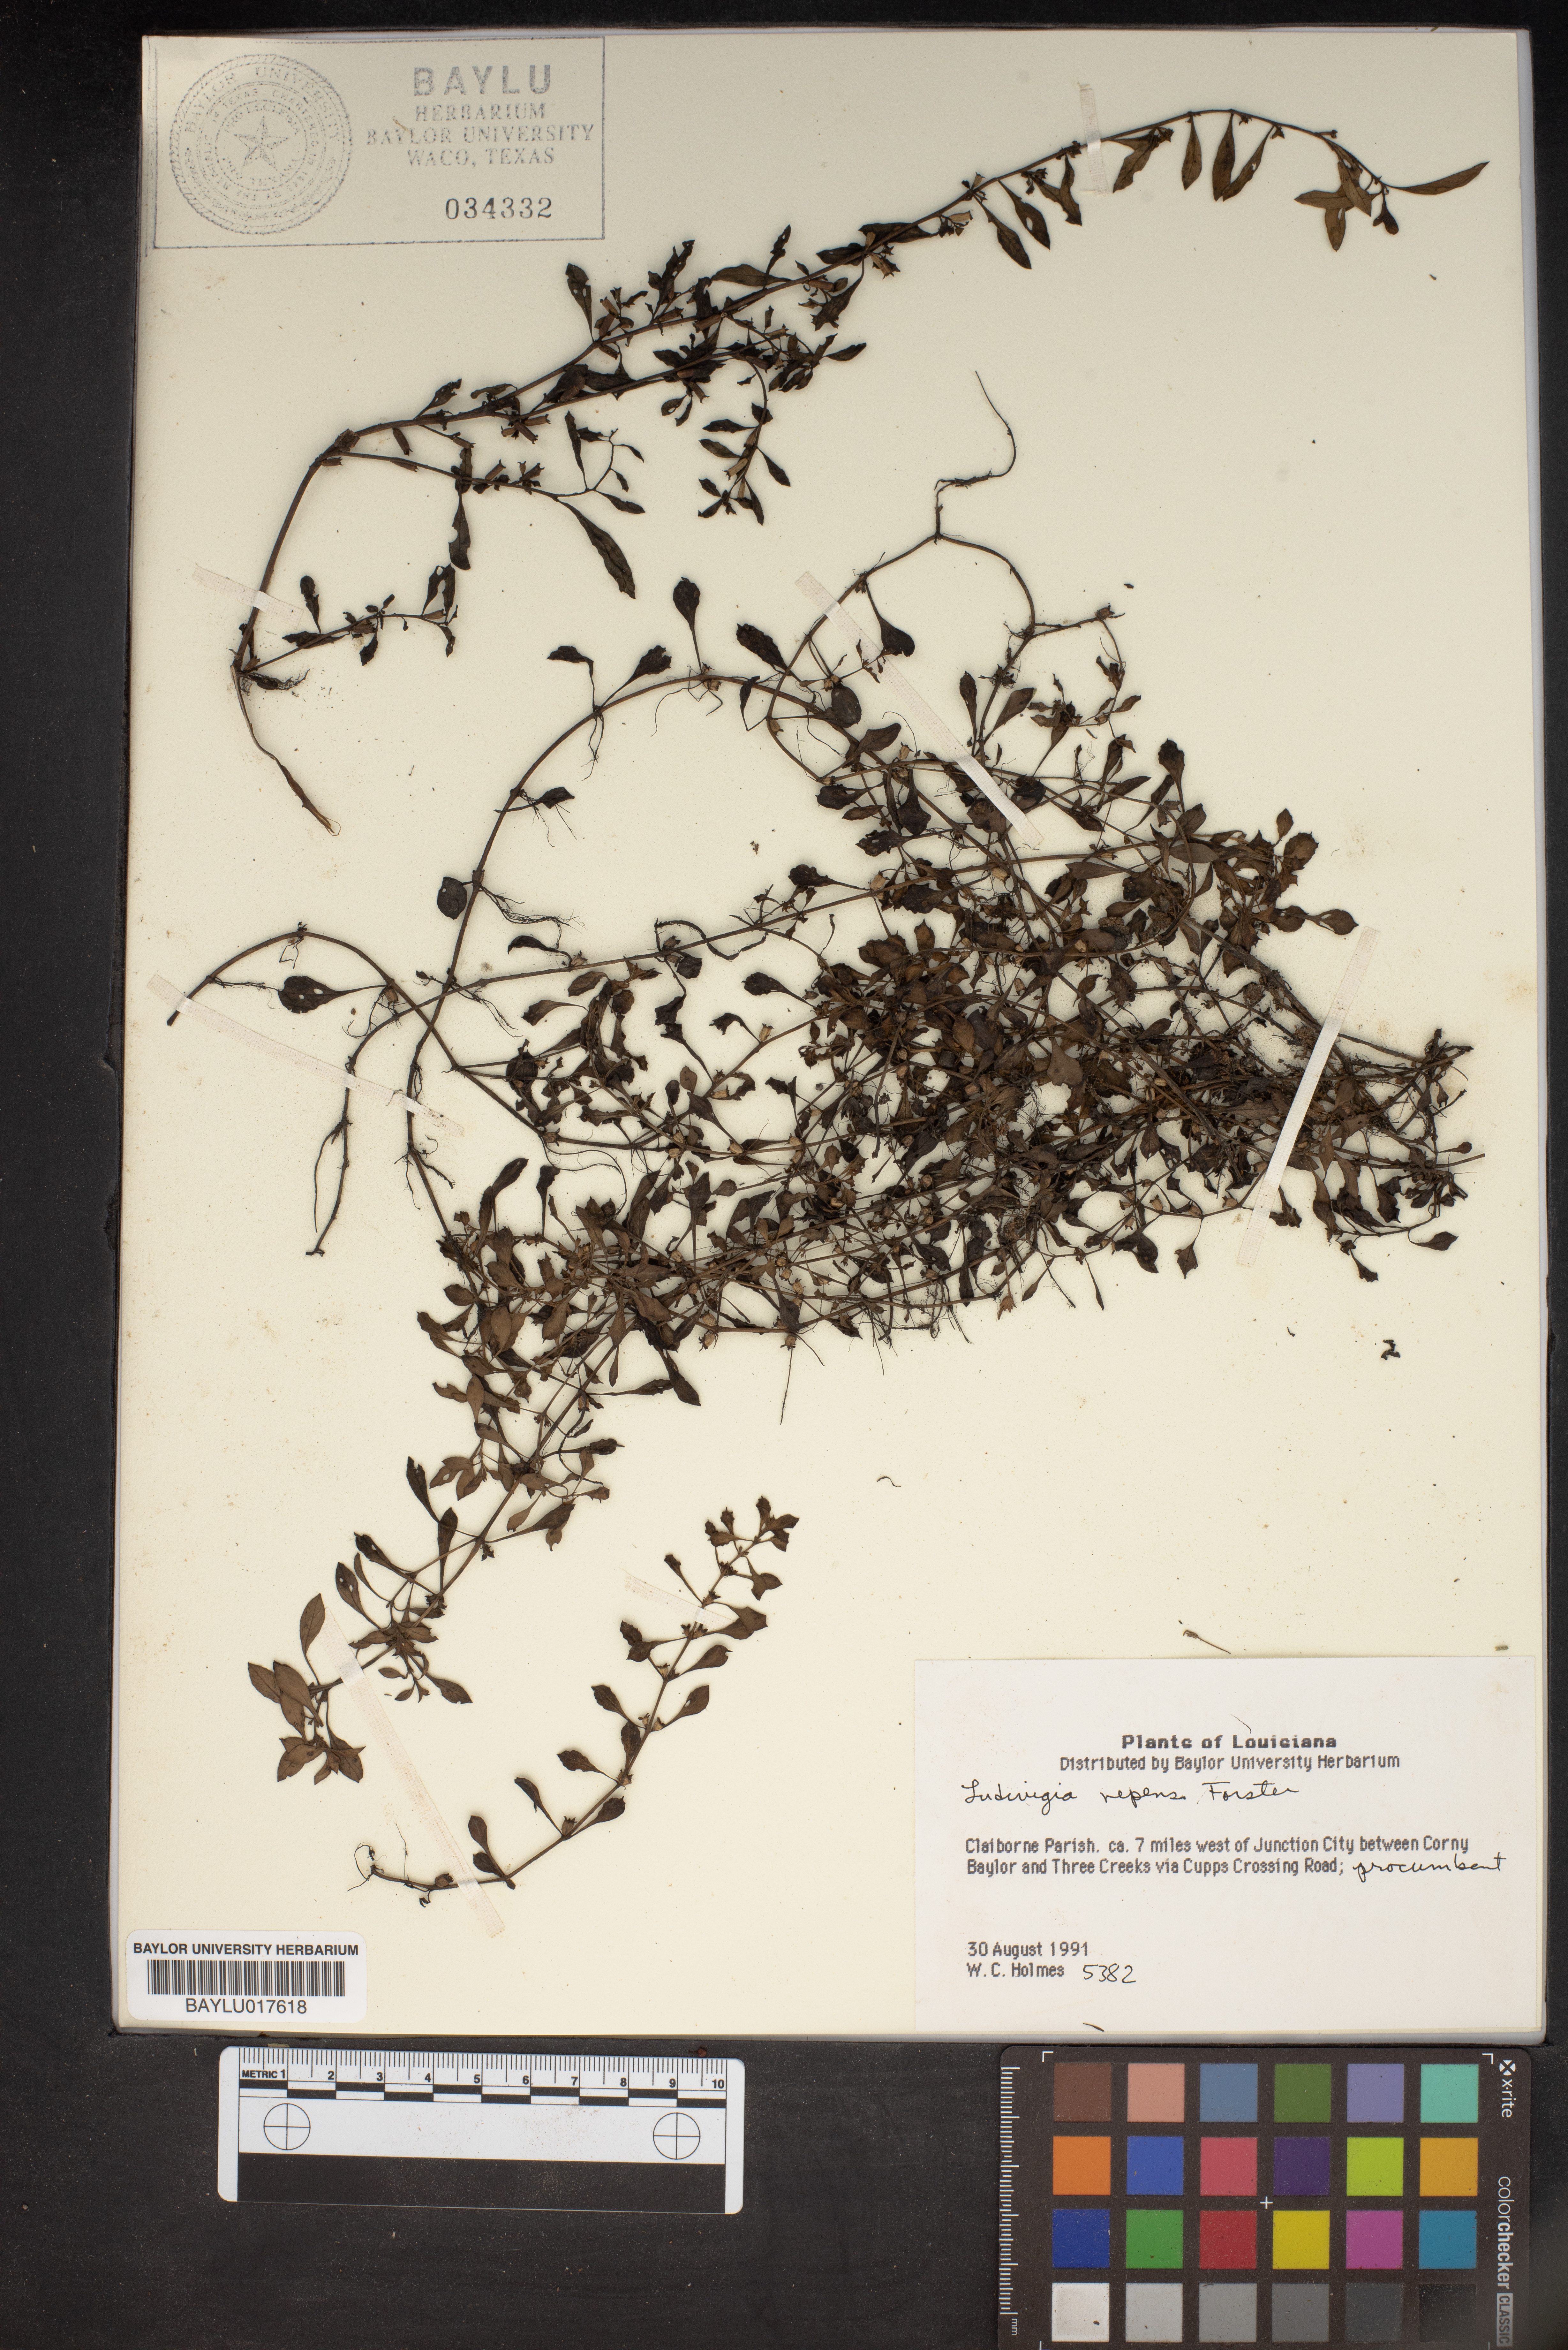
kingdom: Plantae
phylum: Tracheophyta
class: Magnoliopsida
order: Myrtales
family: Onagraceae
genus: Ludwigia
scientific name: Ludwigia repens
